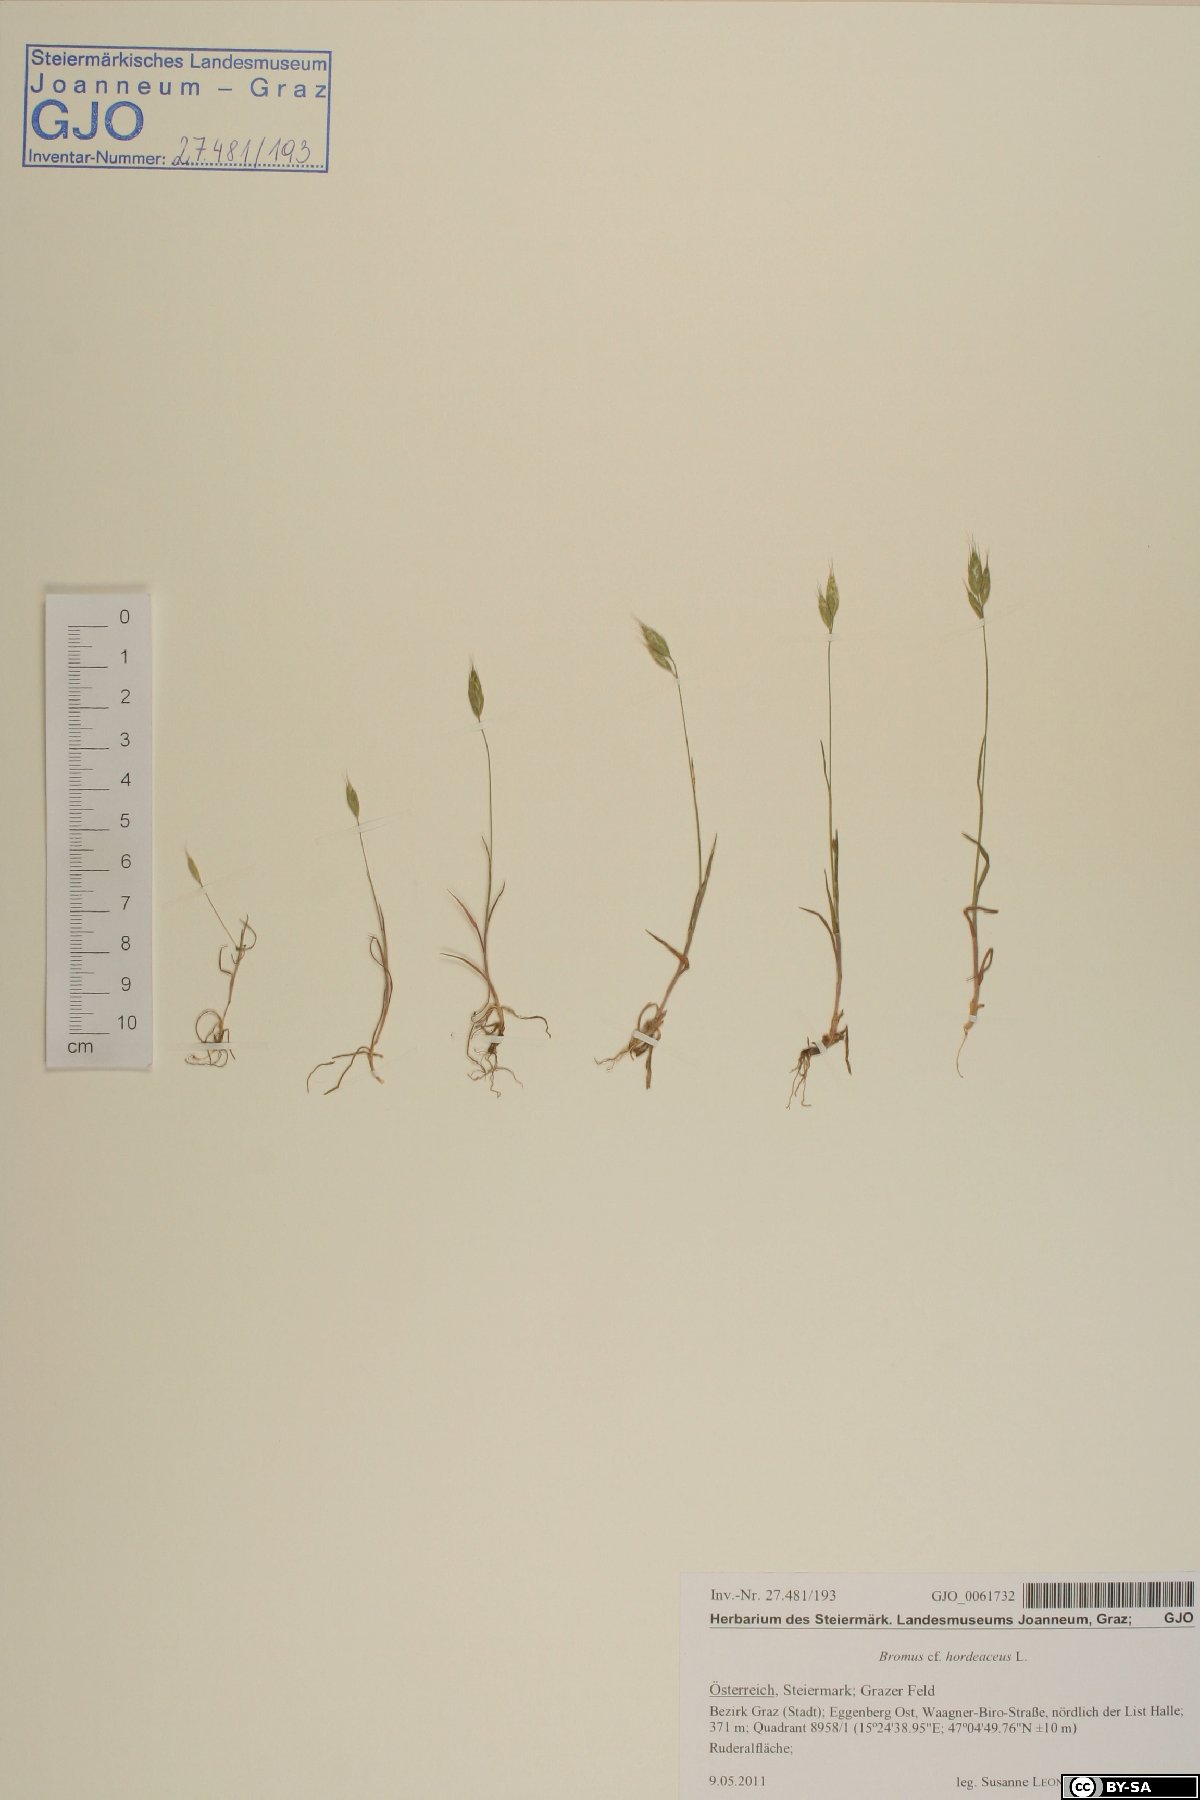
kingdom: Plantae
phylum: Tracheophyta
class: Liliopsida
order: Poales
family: Poaceae
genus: Bromus
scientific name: Bromus hordeaceus
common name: Soft brome
